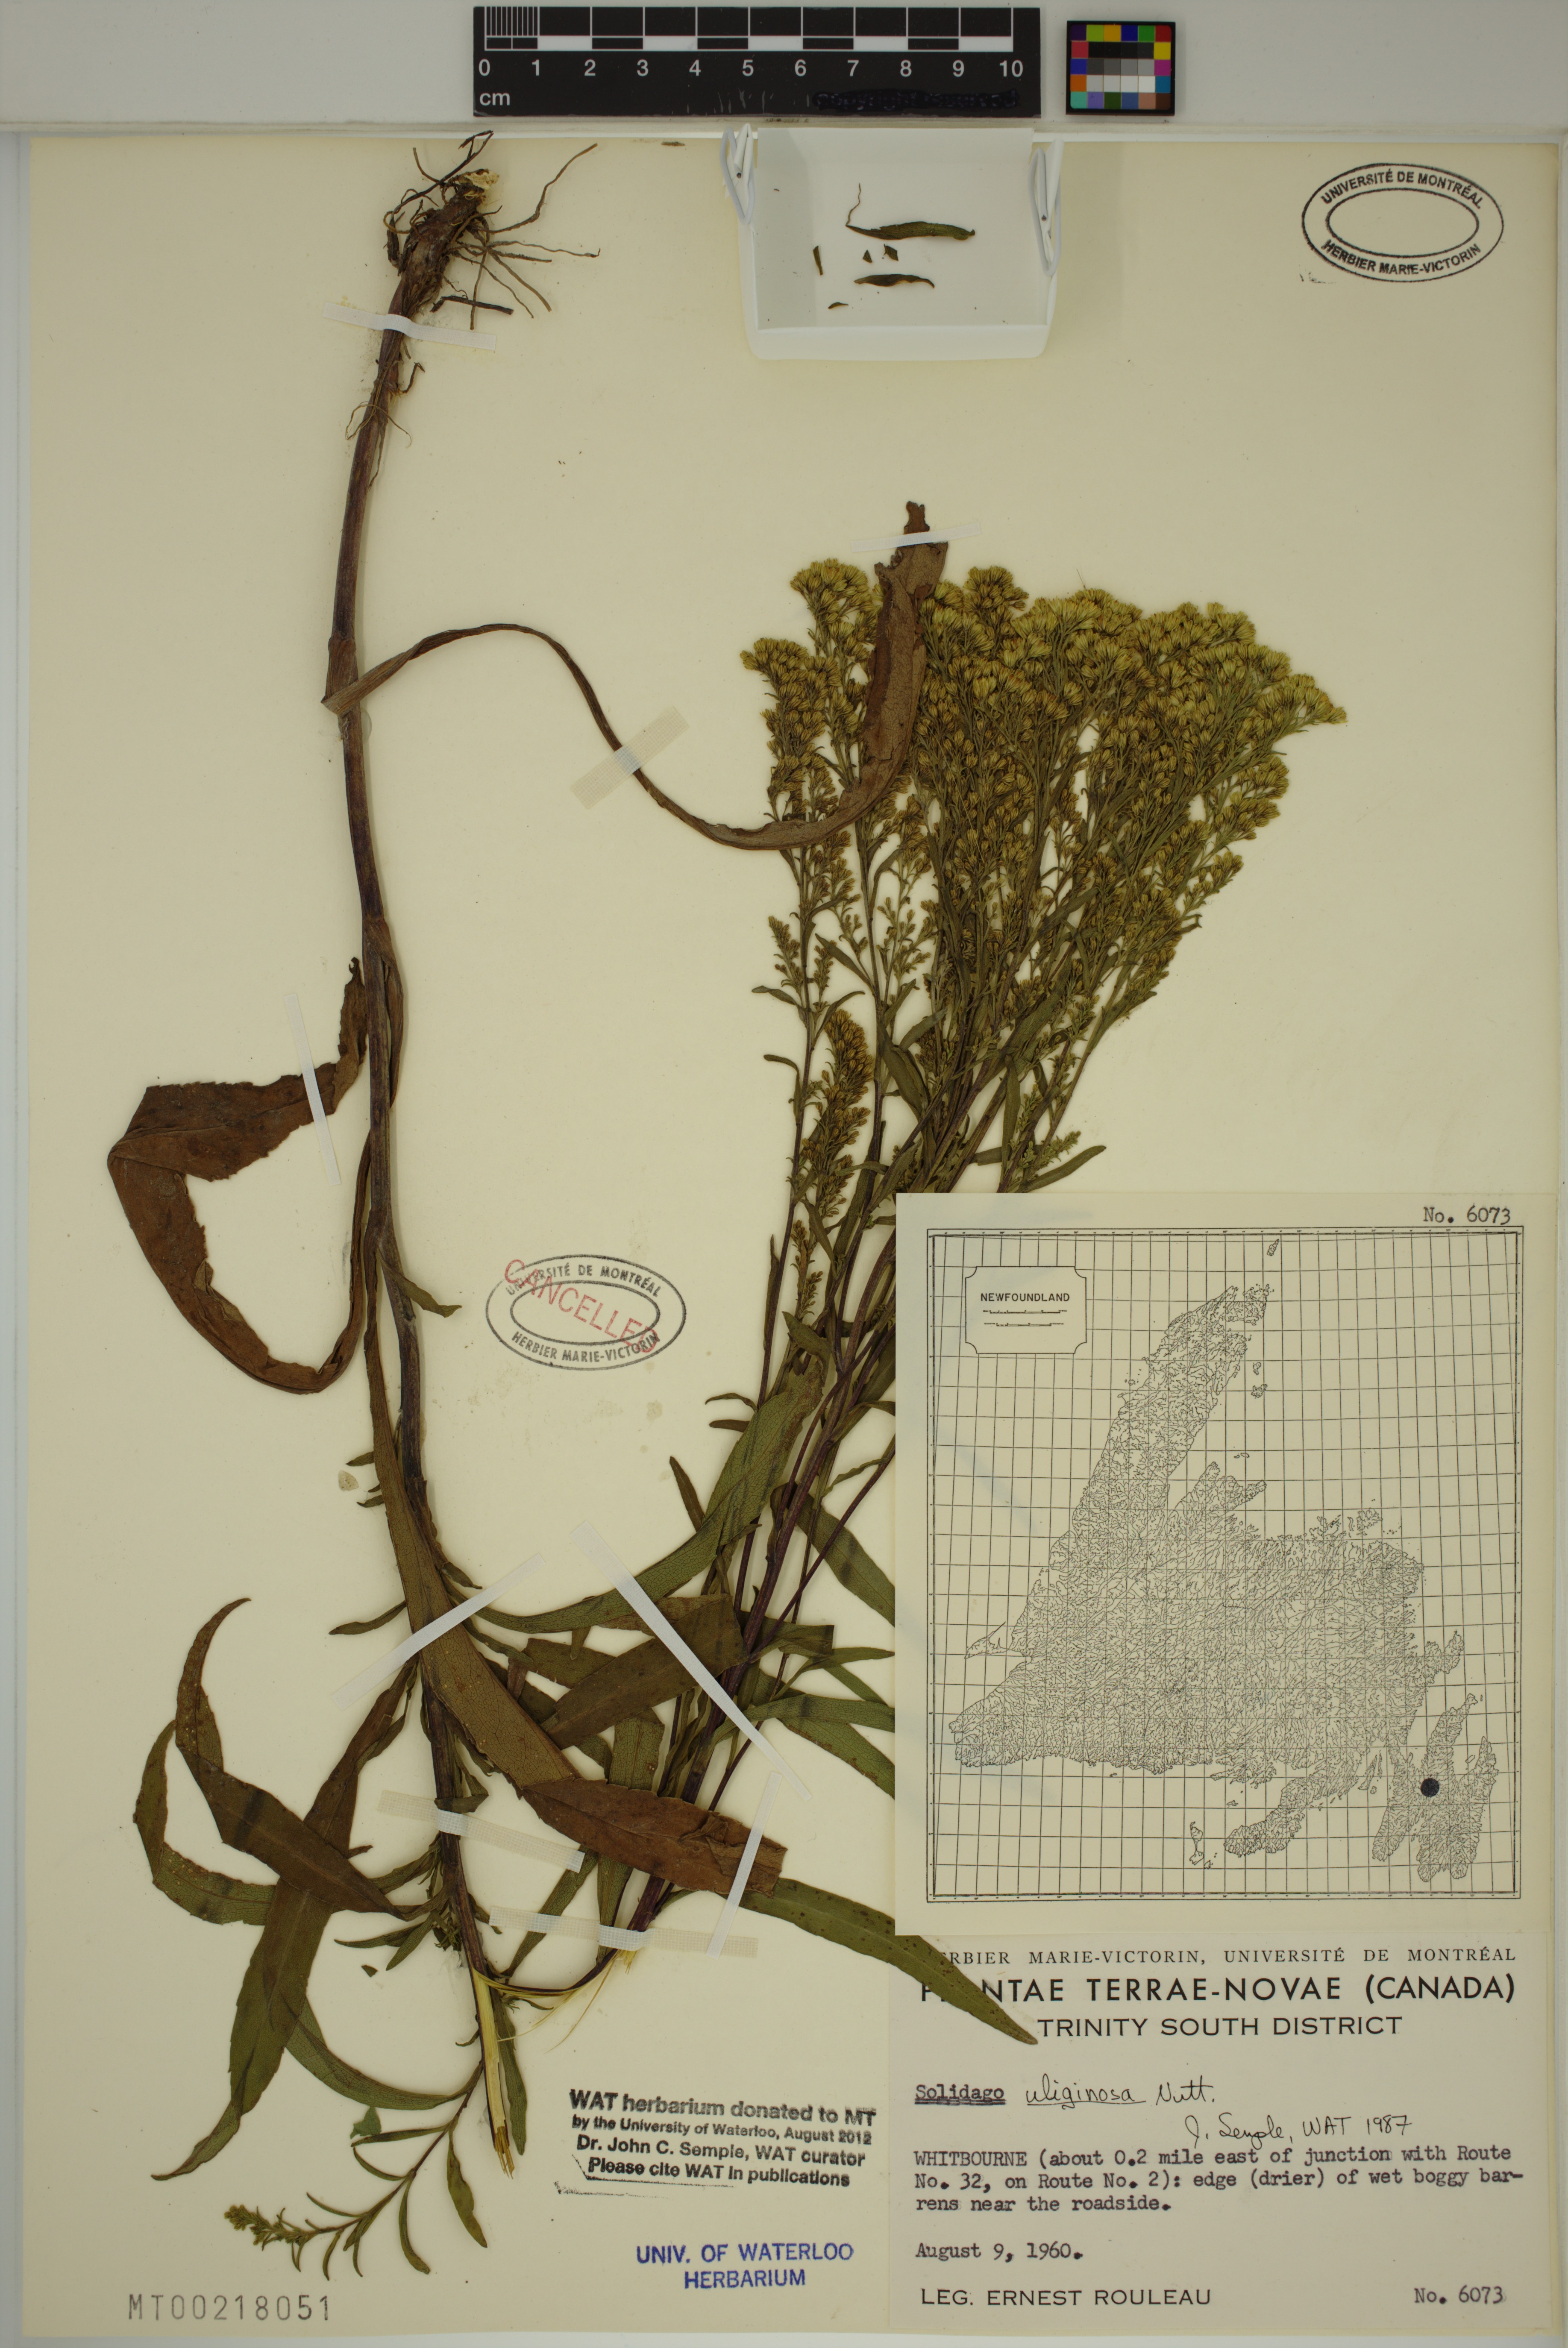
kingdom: Plantae
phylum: Tracheophyta
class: Magnoliopsida
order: Asterales
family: Asteraceae
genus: Solidago
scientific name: Solidago uliginosa
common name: Bog goldenrod
